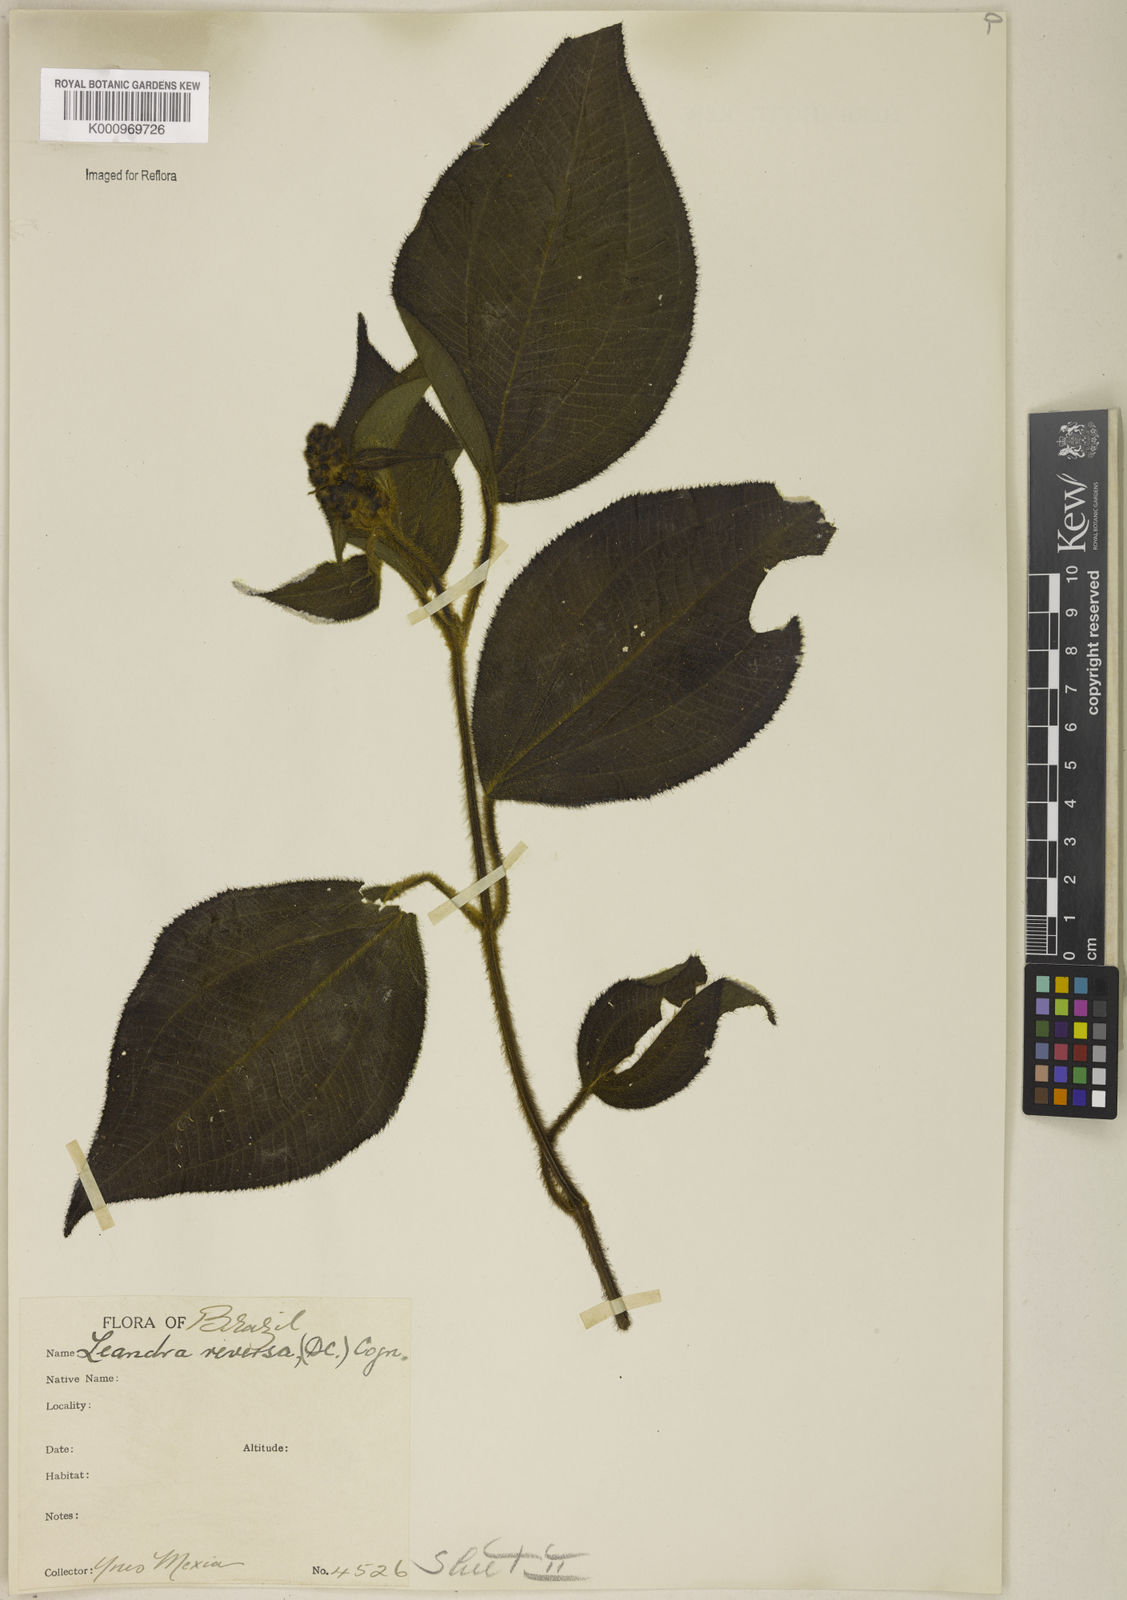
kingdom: Plantae
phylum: Tracheophyta
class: Magnoliopsida
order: Myrtales
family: Melastomataceae
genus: Miconia
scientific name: Miconia reversa
